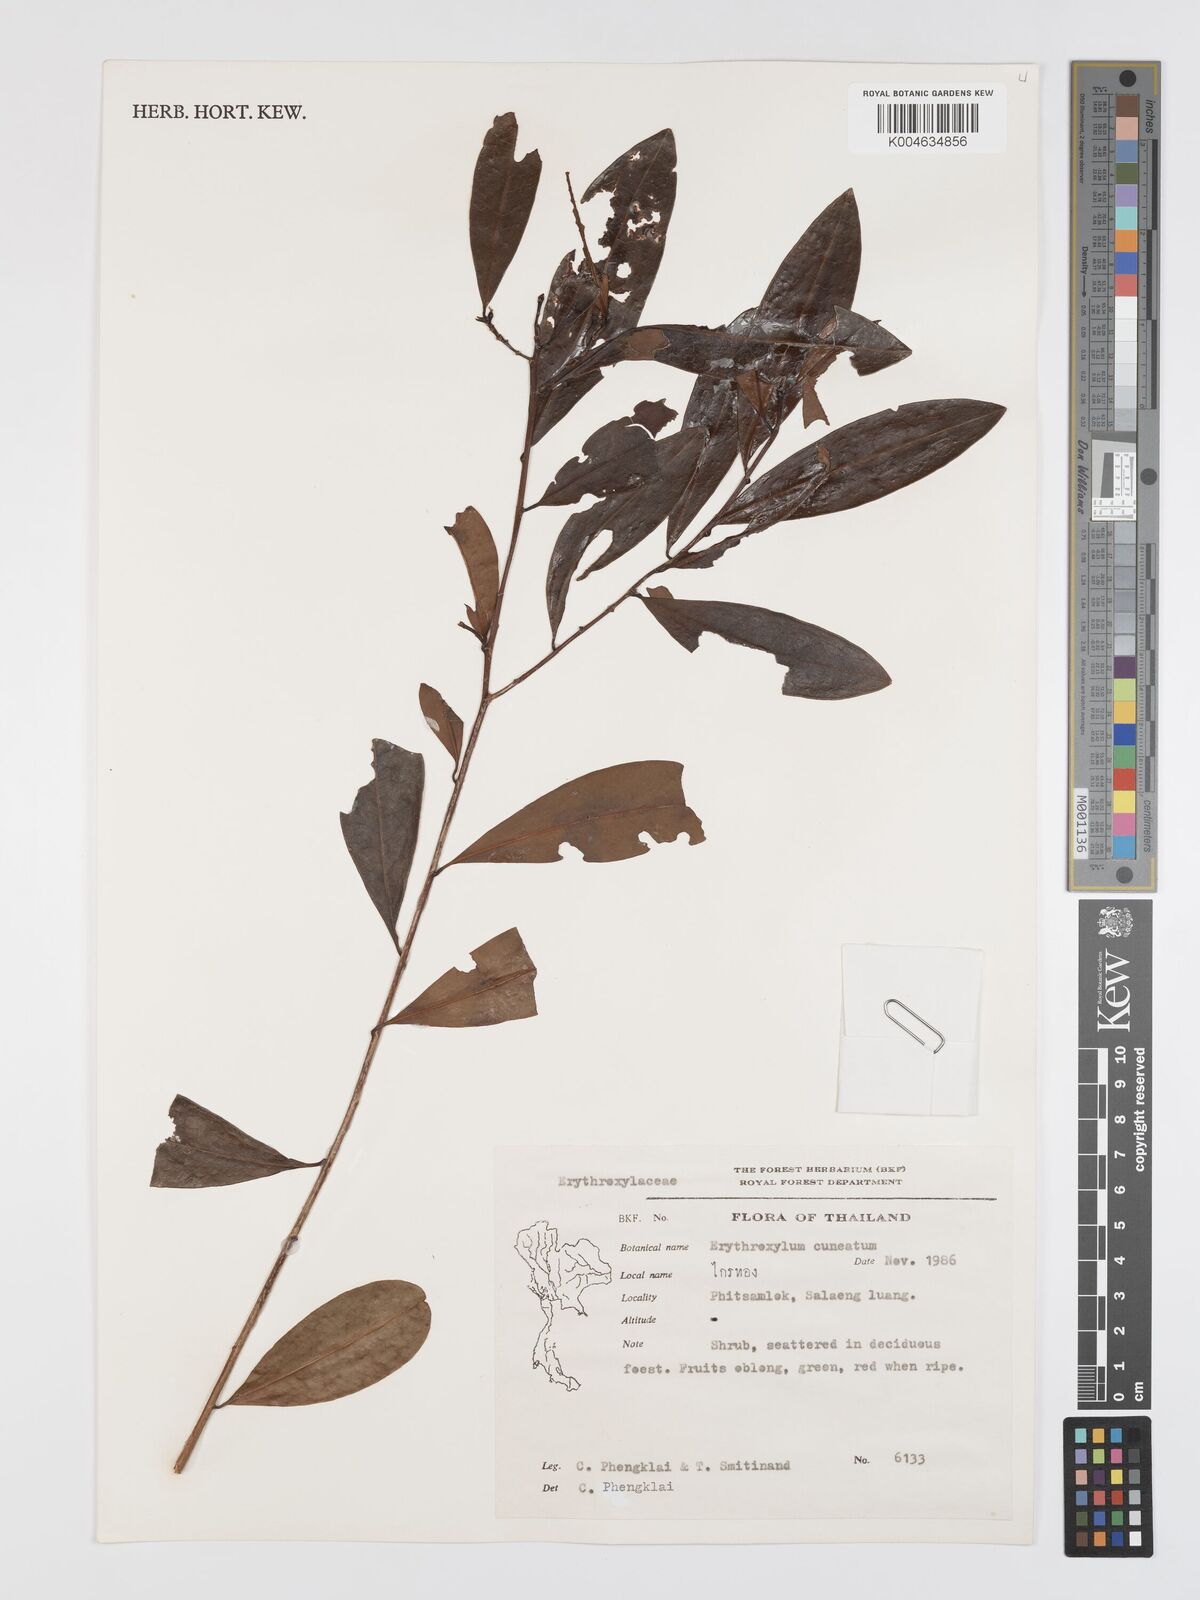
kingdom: Plantae
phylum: Tracheophyta
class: Magnoliopsida
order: Malpighiales
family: Erythroxylaceae
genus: Erythroxylum
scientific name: Erythroxylum cuneatum
